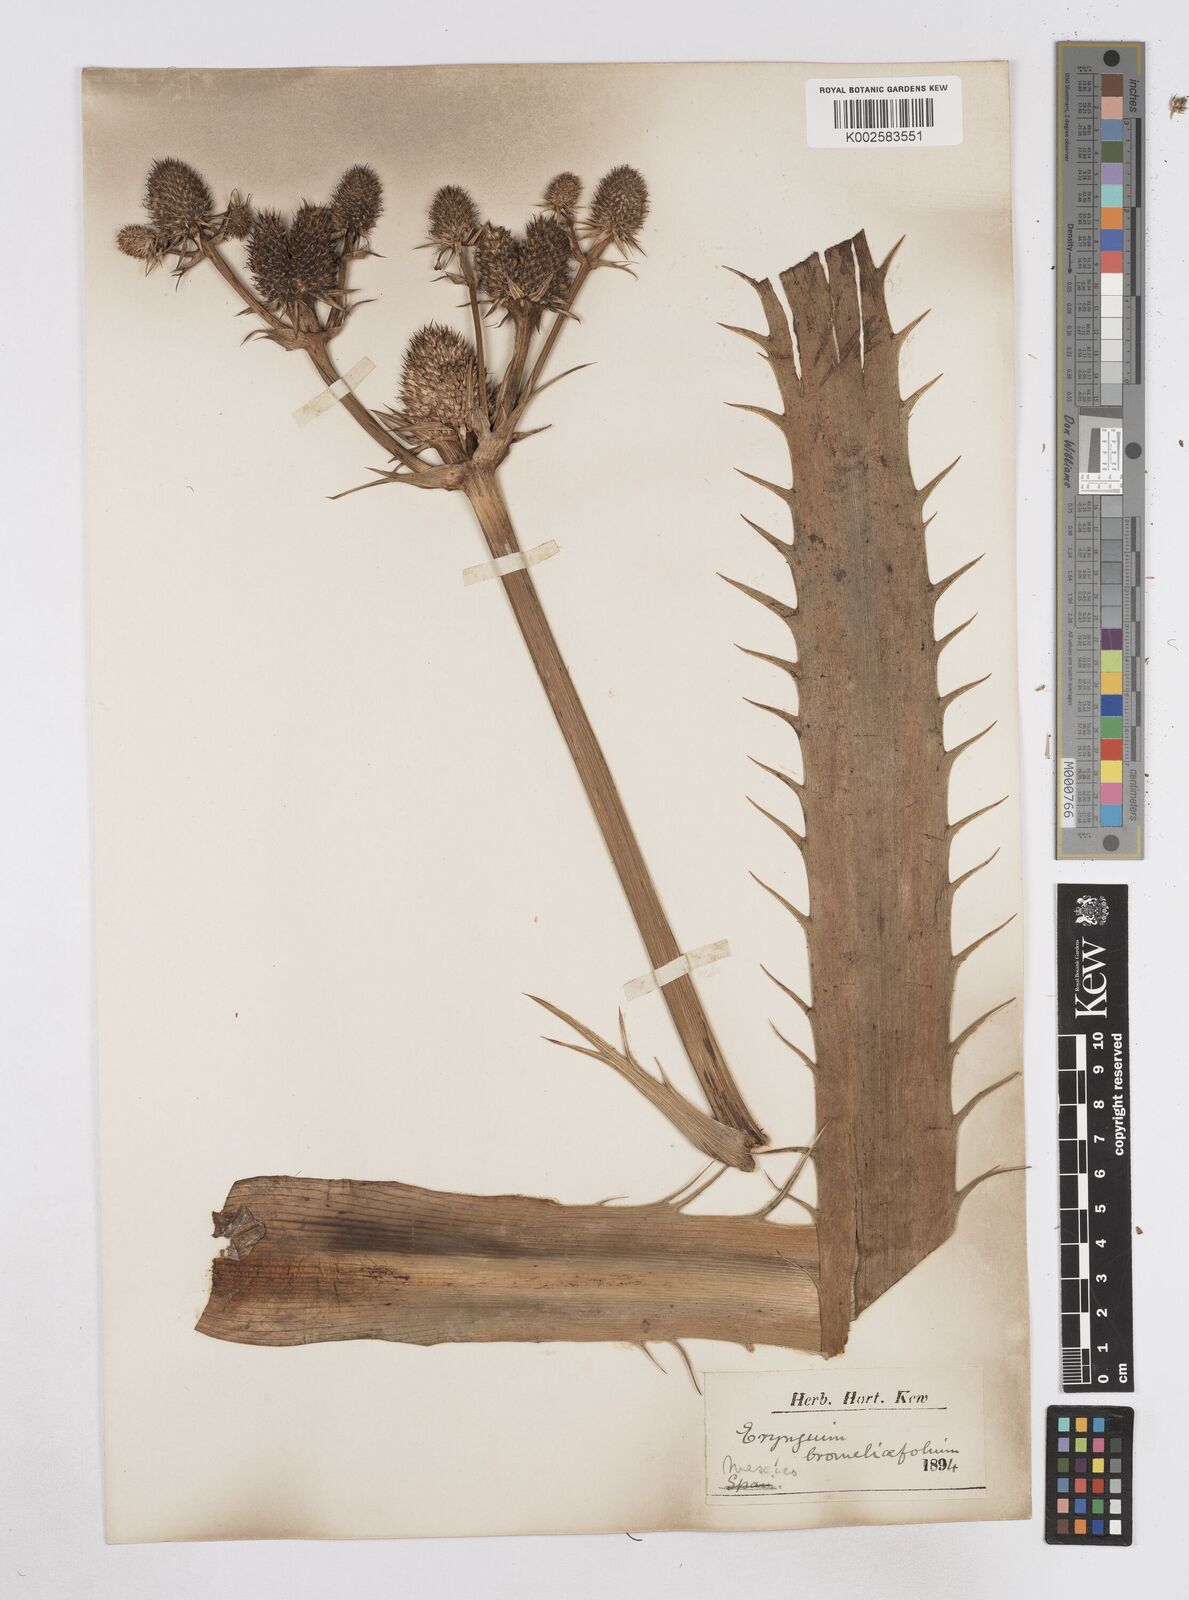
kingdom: Plantae
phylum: Tracheophyta
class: Magnoliopsida
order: Apiales
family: Apiaceae
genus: Eryngium
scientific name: Eryngium
